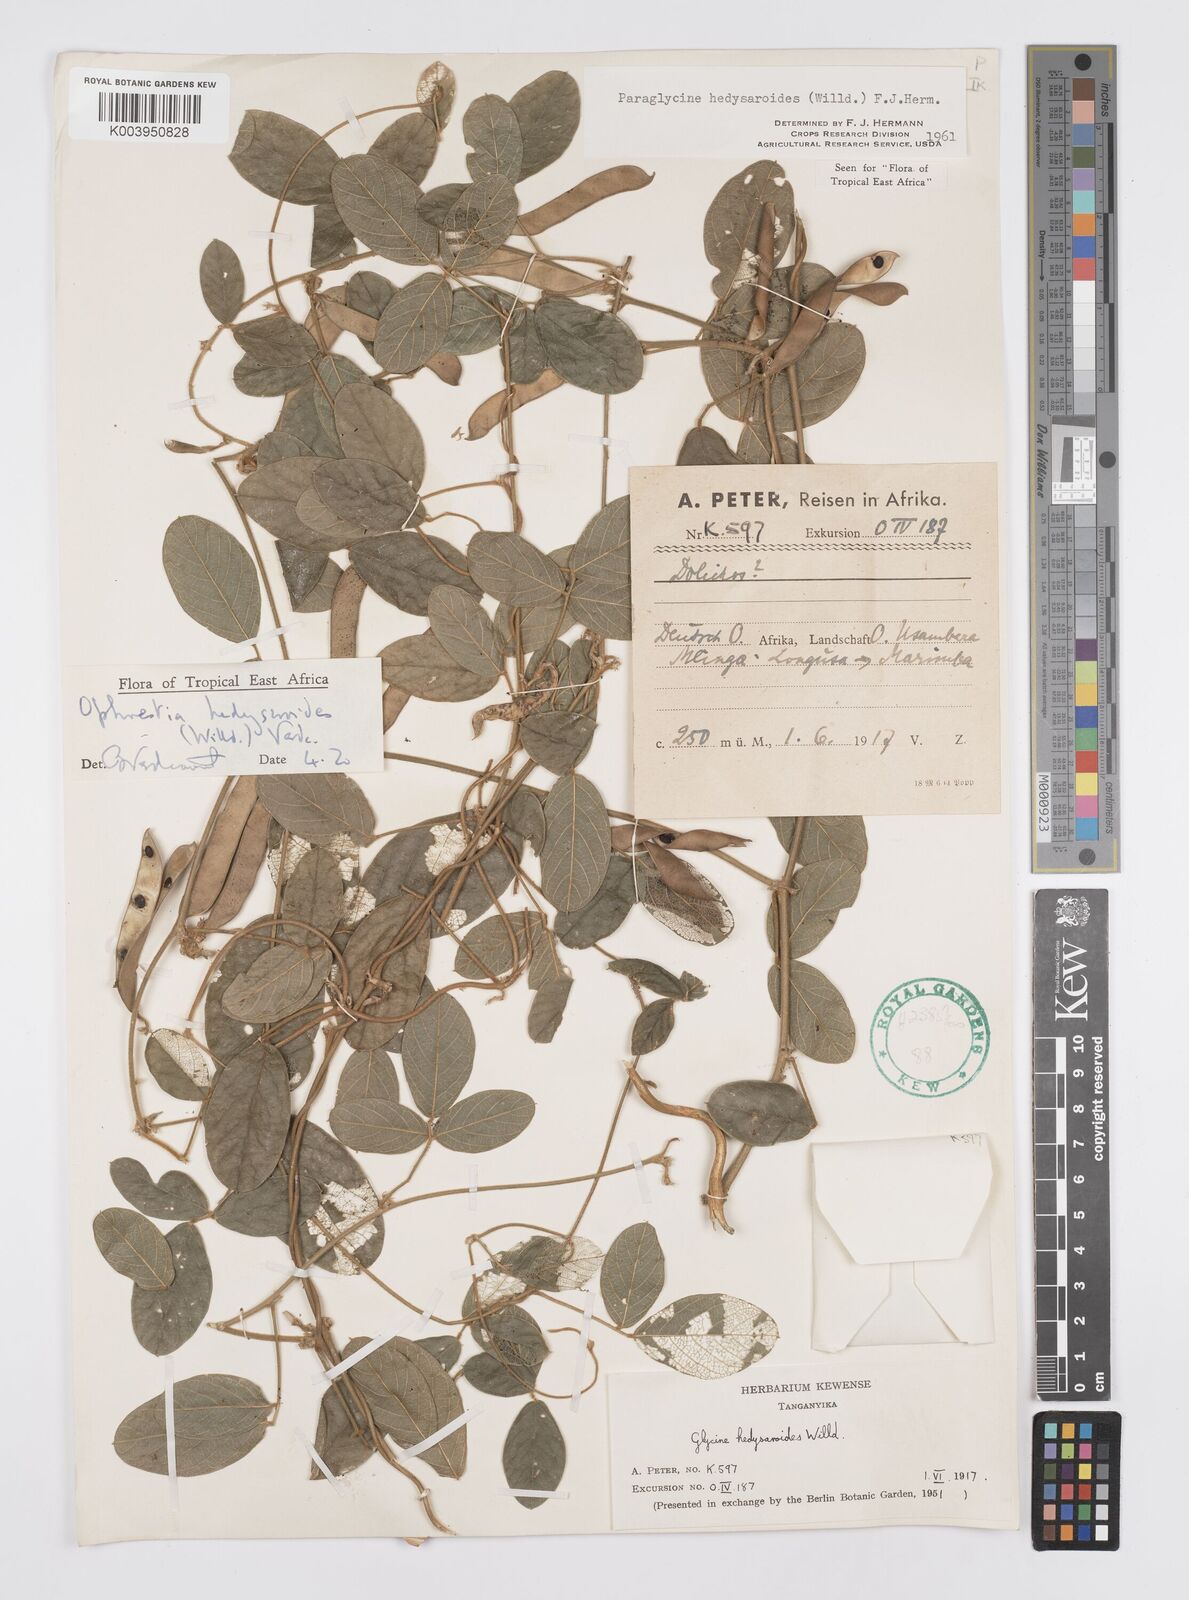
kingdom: Plantae
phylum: Tracheophyta
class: Magnoliopsida
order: Fabales
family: Fabaceae
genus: Ophrestia
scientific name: Ophrestia hedysaroides
